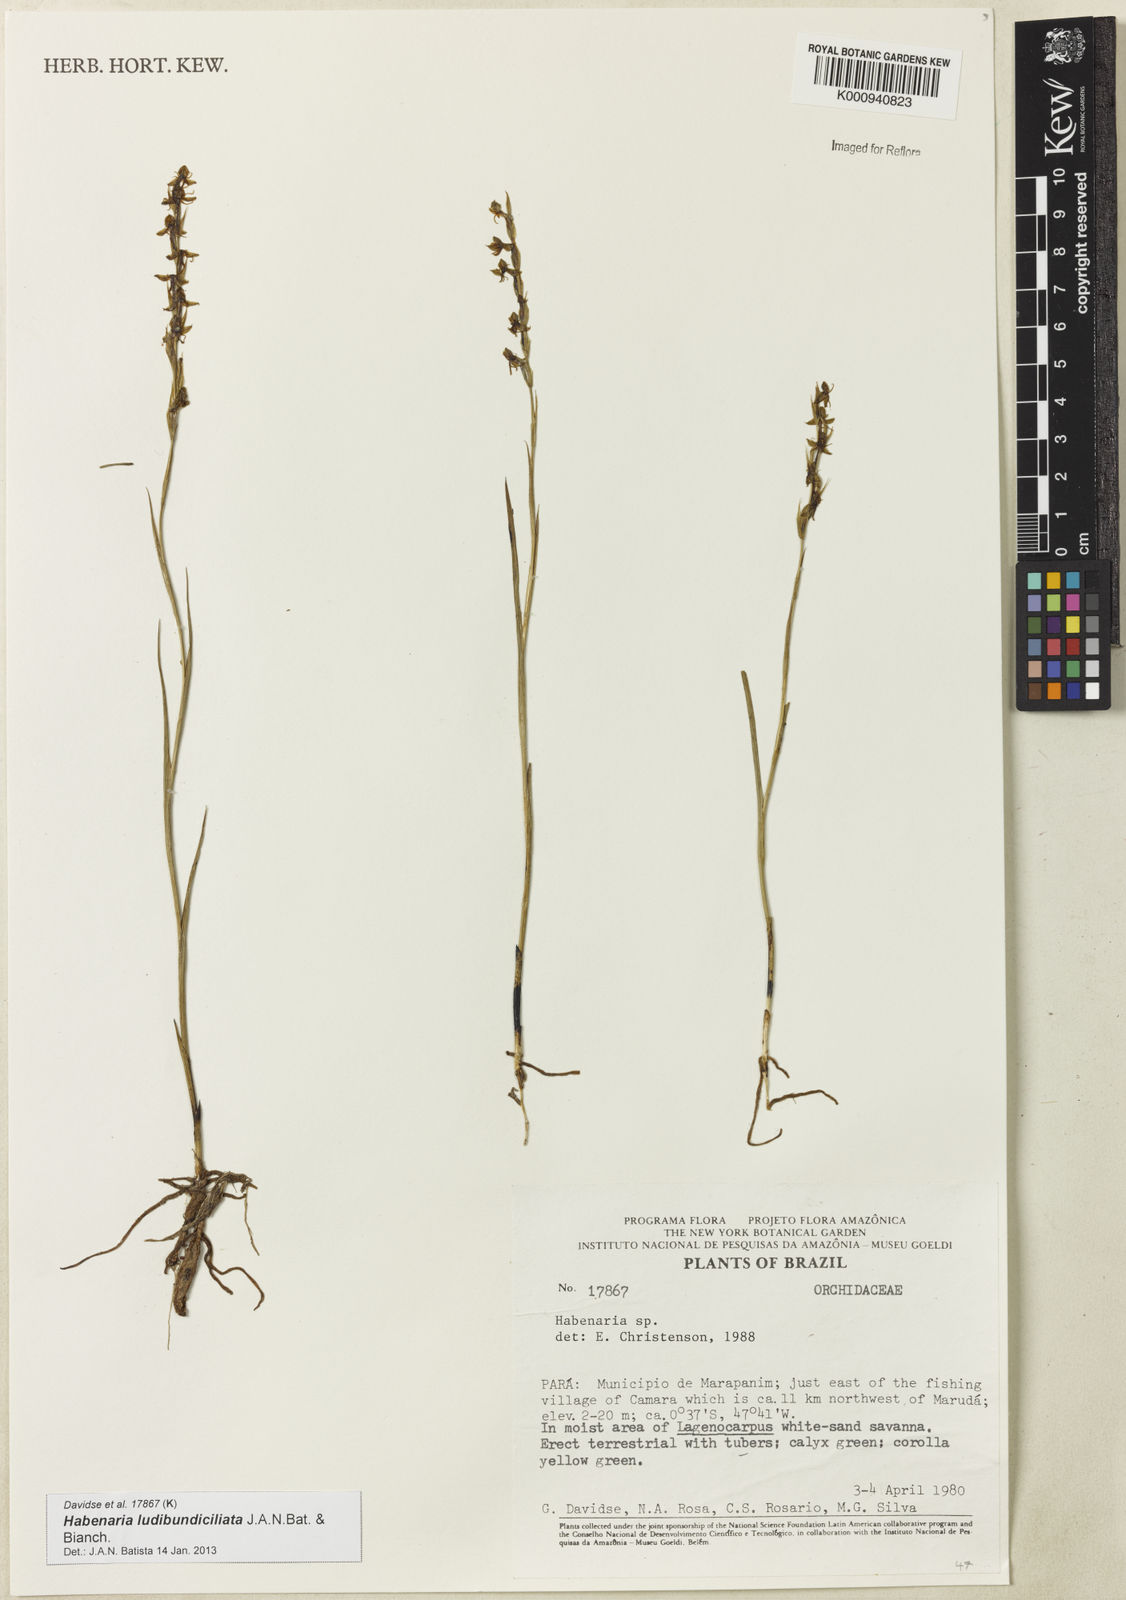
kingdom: Plantae
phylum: Tracheophyta
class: Liliopsida
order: Asparagales
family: Orchidaceae
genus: Habenaria
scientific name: Habenaria ludibundiciliata
